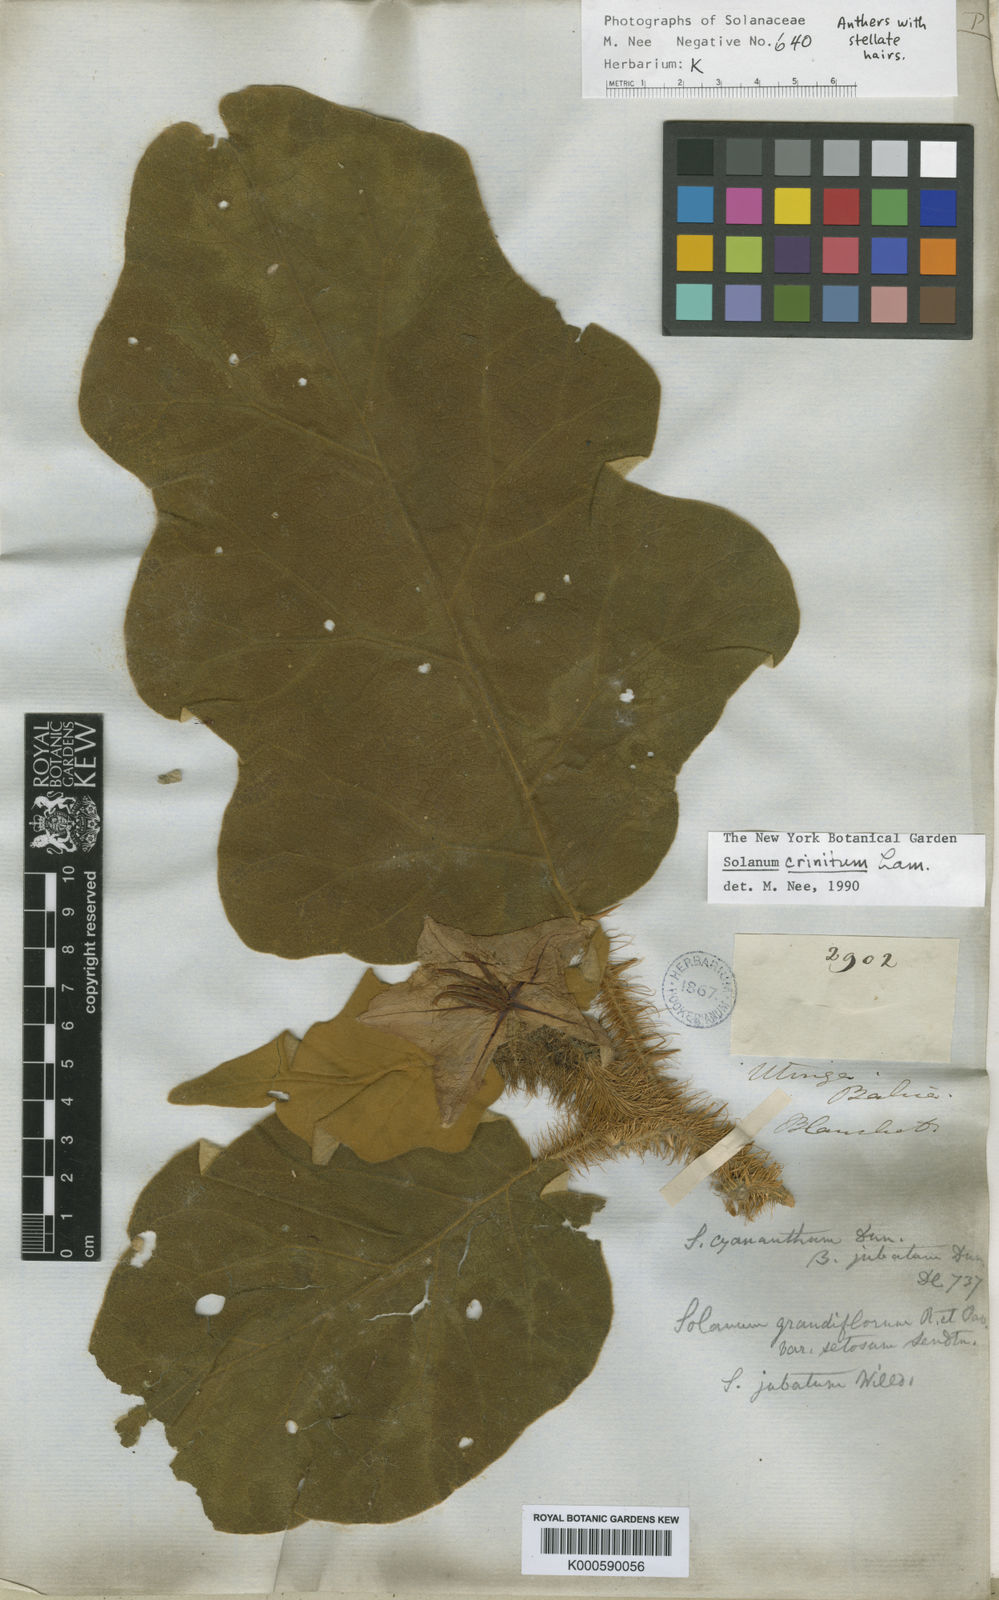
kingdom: Plantae
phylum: Tracheophyta
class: Magnoliopsida
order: Solanales
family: Solanaceae
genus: Solanum
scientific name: Solanum crinitum
